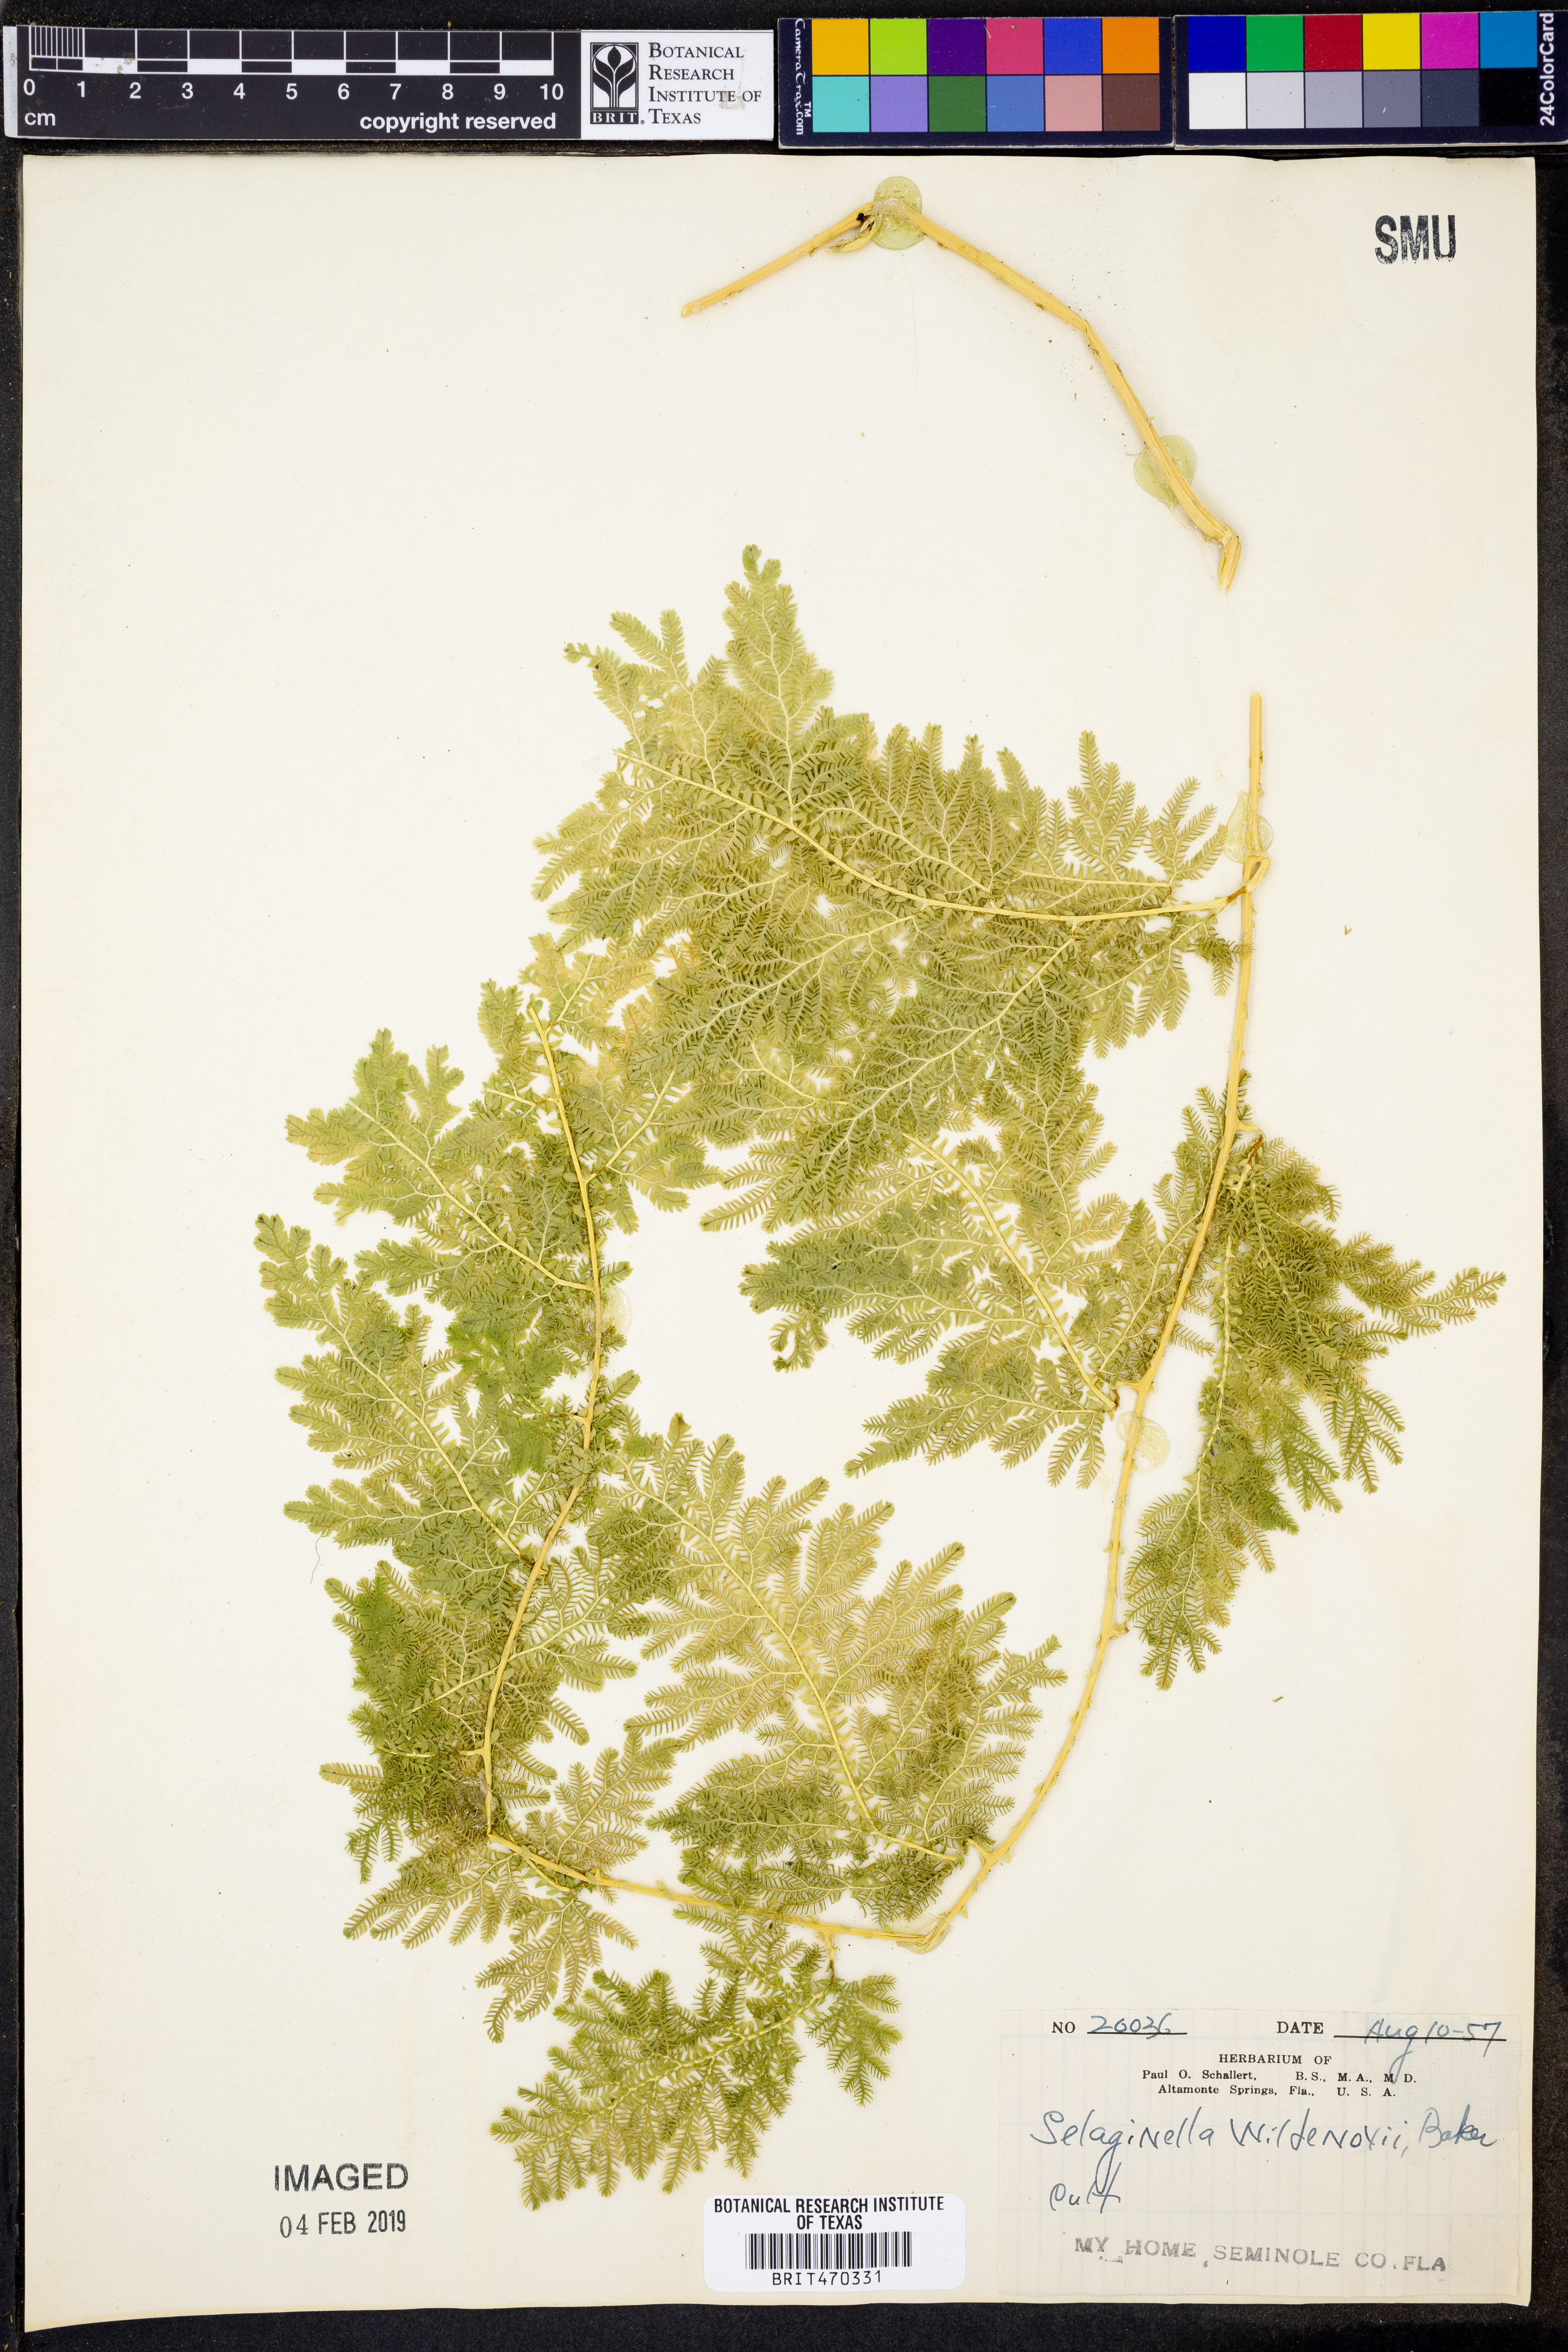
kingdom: Plantae
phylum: Tracheophyta
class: Lycopodiopsida
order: Selaginellales
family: Selaginellaceae
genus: Selaginella
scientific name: Selaginella willdenowii
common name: Willdenow's spikemoss
